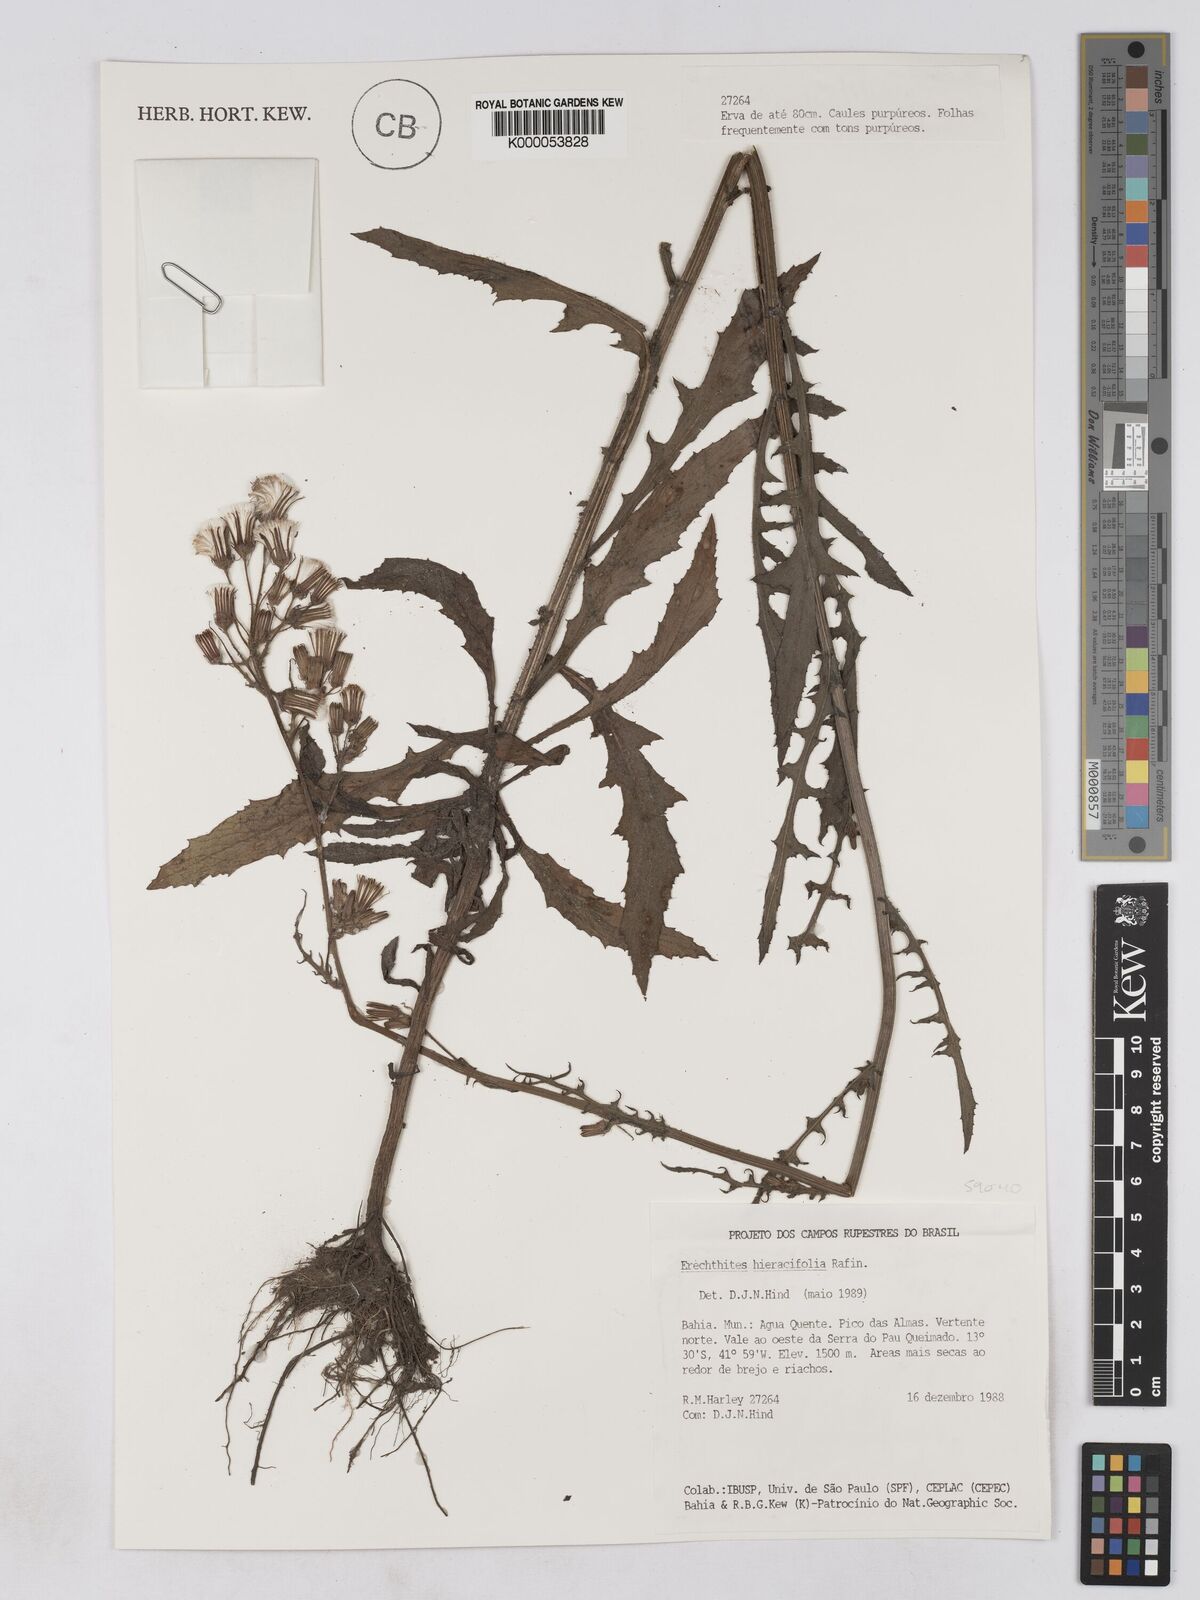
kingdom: Plantae
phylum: Tracheophyta
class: Magnoliopsida
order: Asterales
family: Asteraceae
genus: Erechtites
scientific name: Erechtites hieraciifolius
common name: American burnweed
